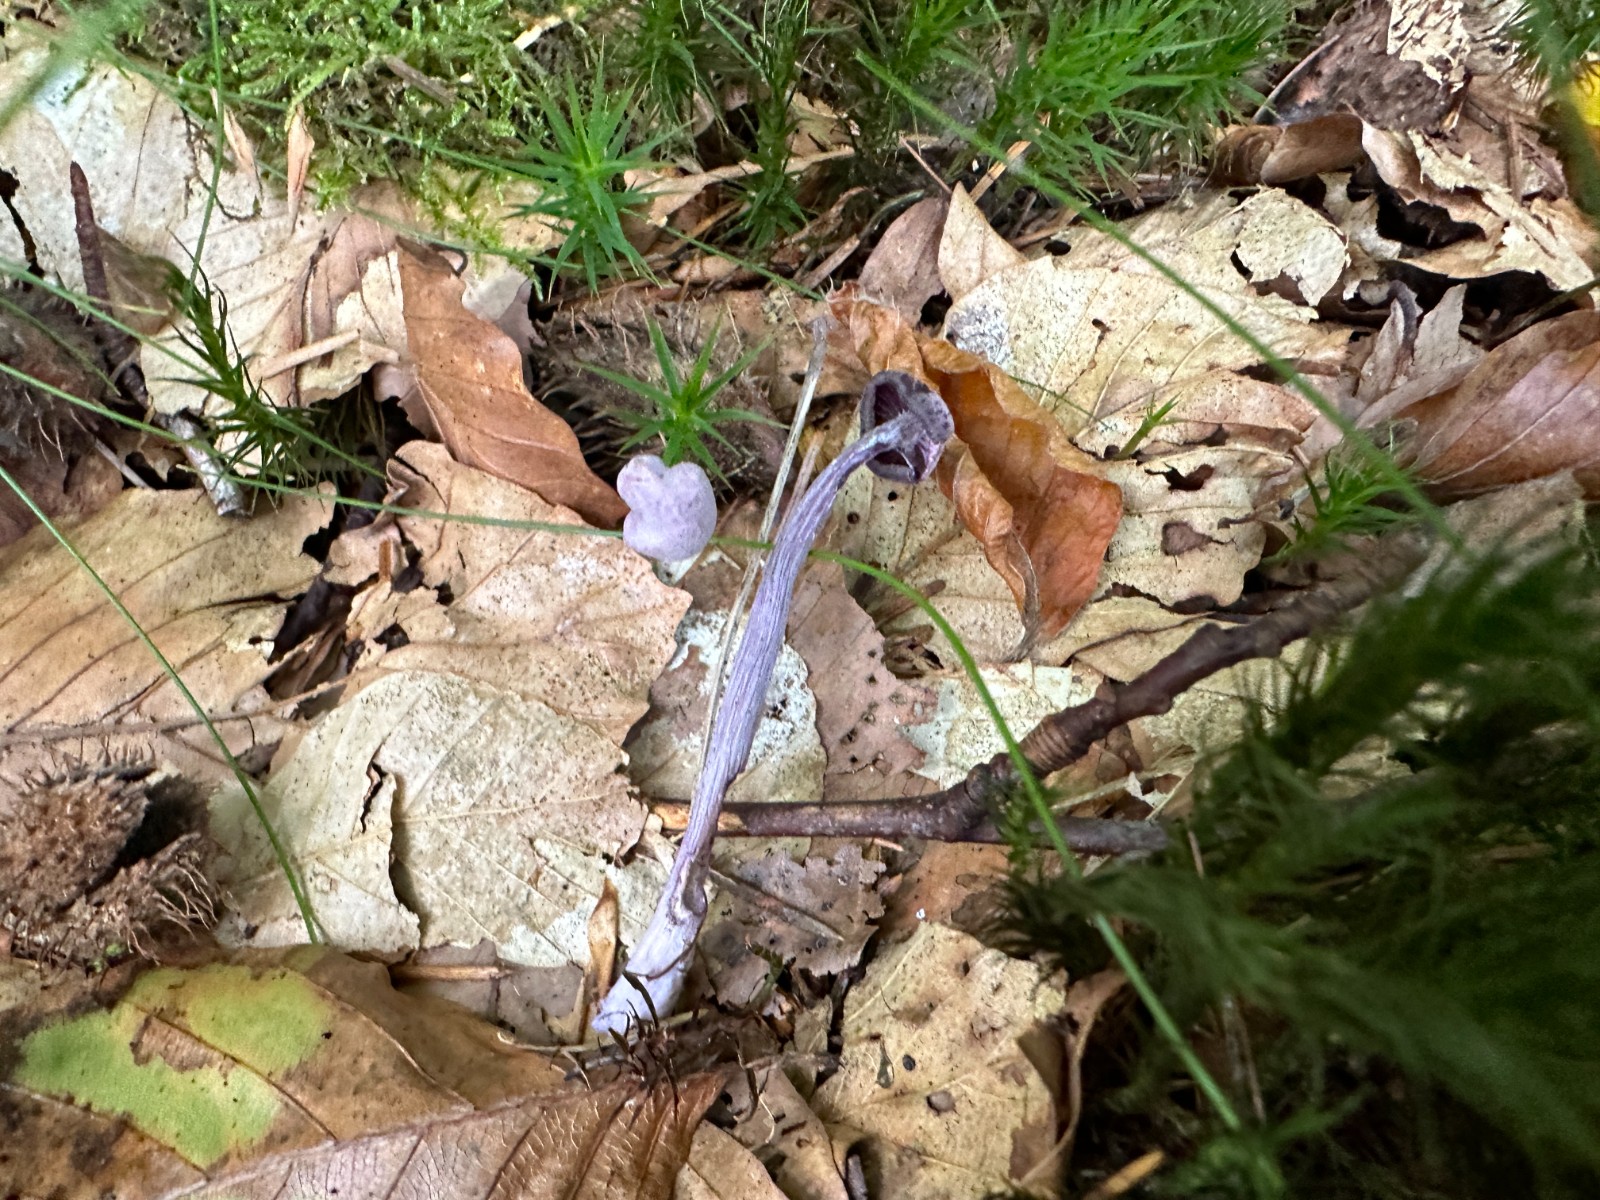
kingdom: Fungi
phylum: Basidiomycota
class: Agaricomycetes
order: Agaricales
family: Hydnangiaceae
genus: Laccaria
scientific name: Laccaria amethystina
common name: violet ametysthat
